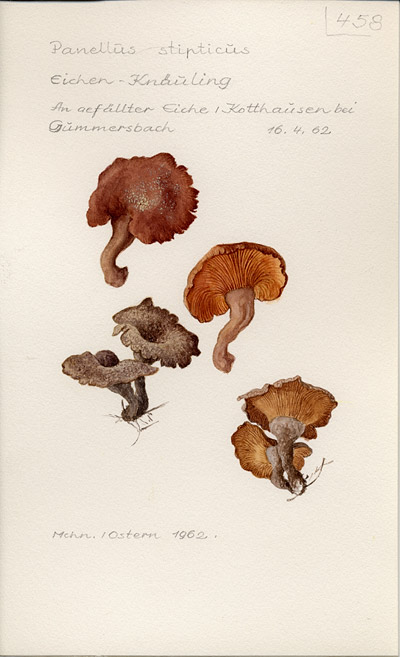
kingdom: Fungi
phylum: Basidiomycota
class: Agaricomycetes
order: Agaricales
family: Mycenaceae
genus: Panellus
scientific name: Panellus stipticus
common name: Bitter oysterling
